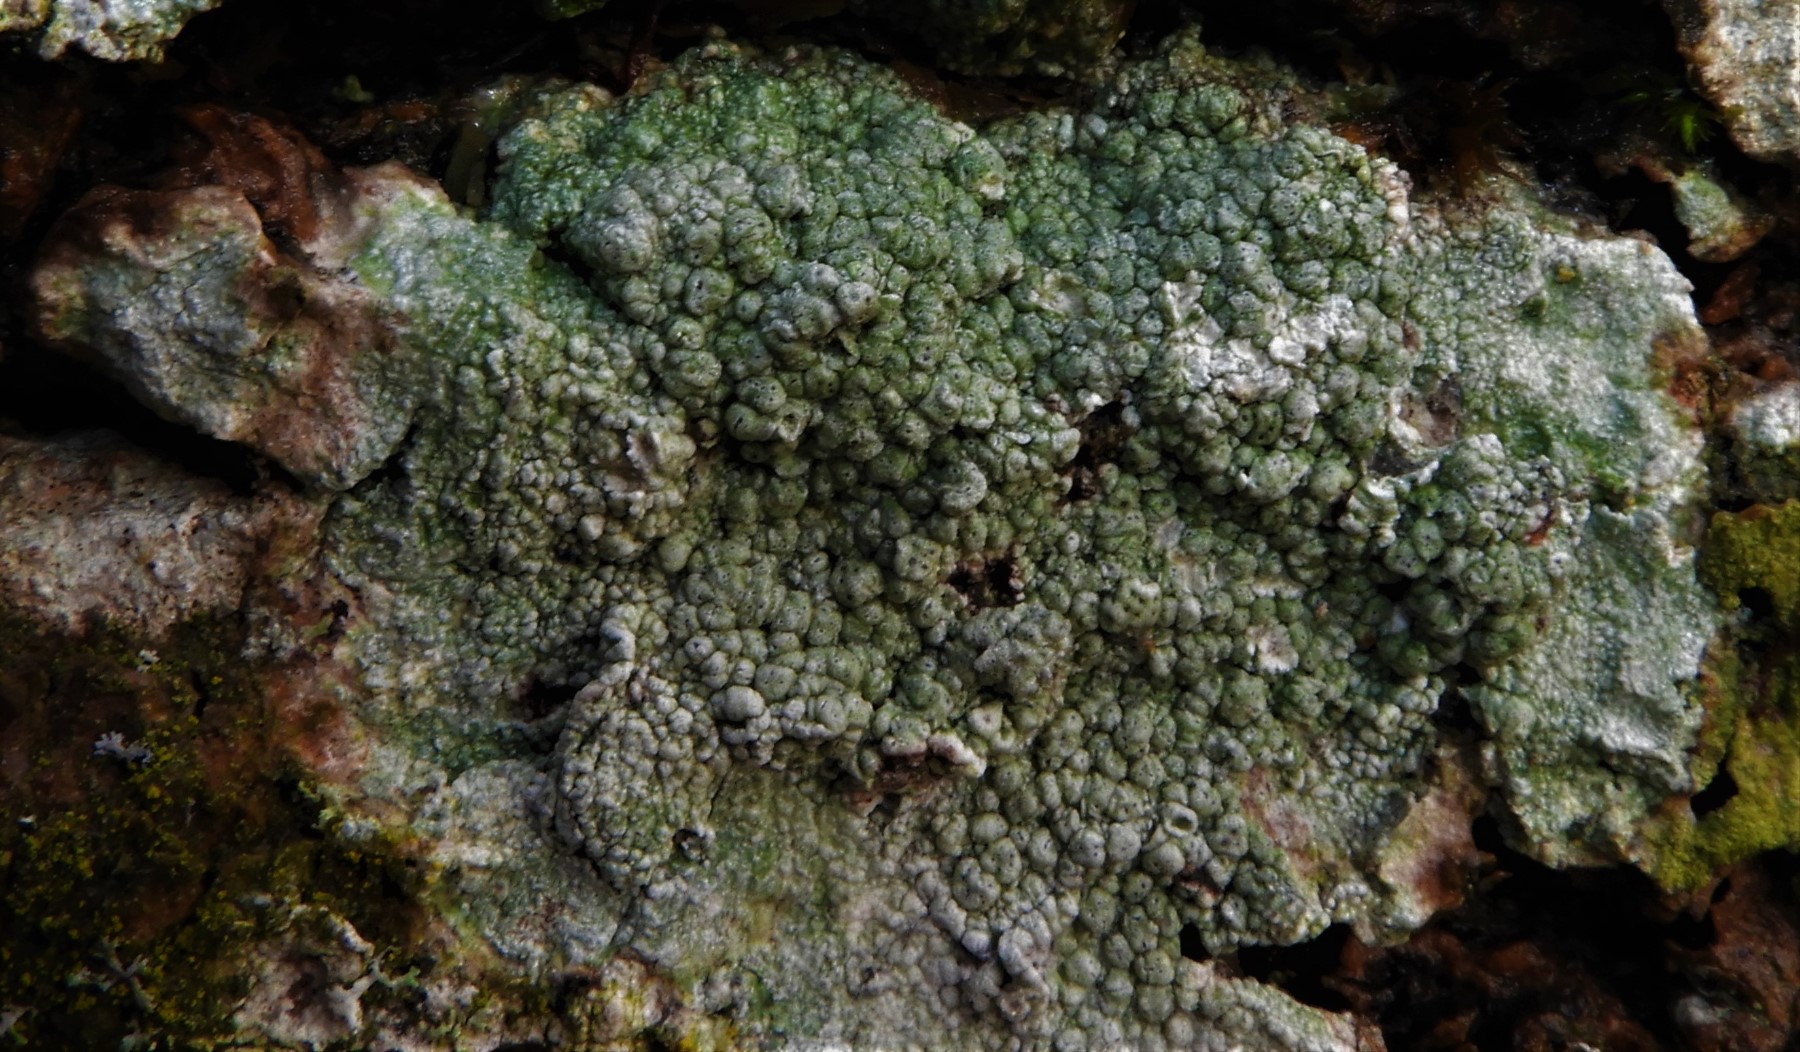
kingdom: Fungi
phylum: Ascomycota
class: Lecanoromycetes
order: Pertusariales
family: Pertusariaceae
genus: Pertusaria
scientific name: Pertusaria pertusa
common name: almindelig prikvortelav
